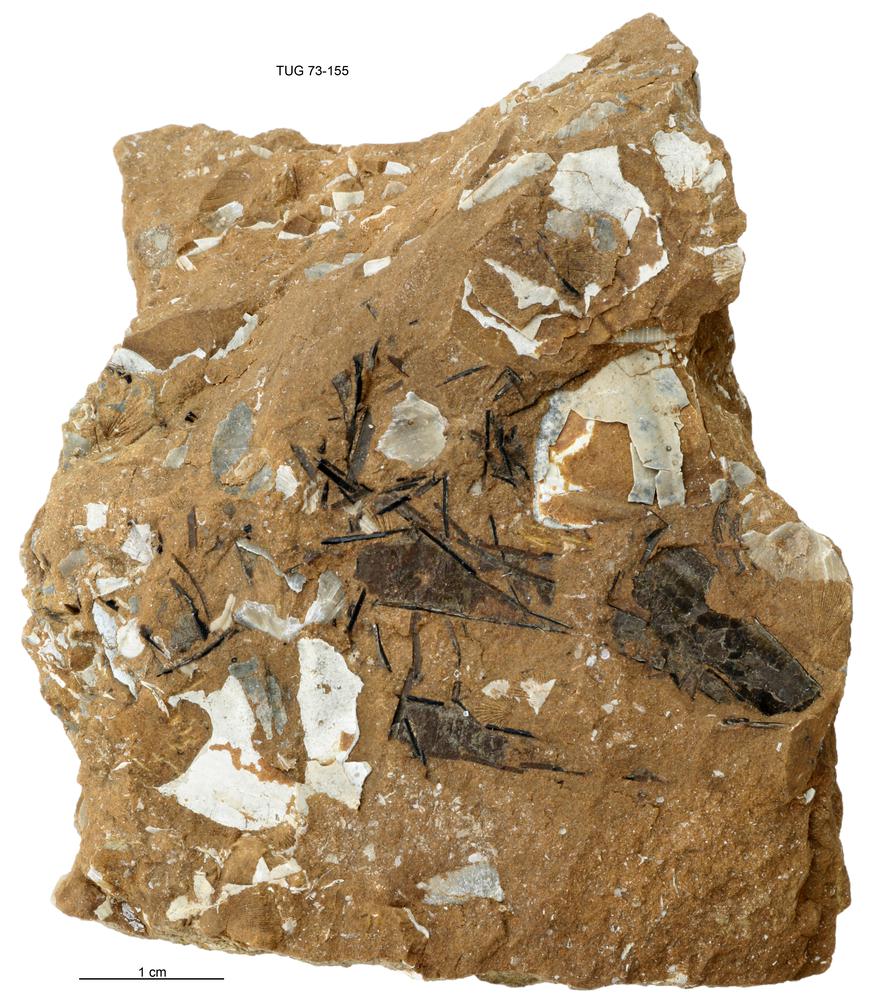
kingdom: Animalia
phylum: Cnidaria
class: Scyphozoa
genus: Sphenothallus
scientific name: Sphenothallus
